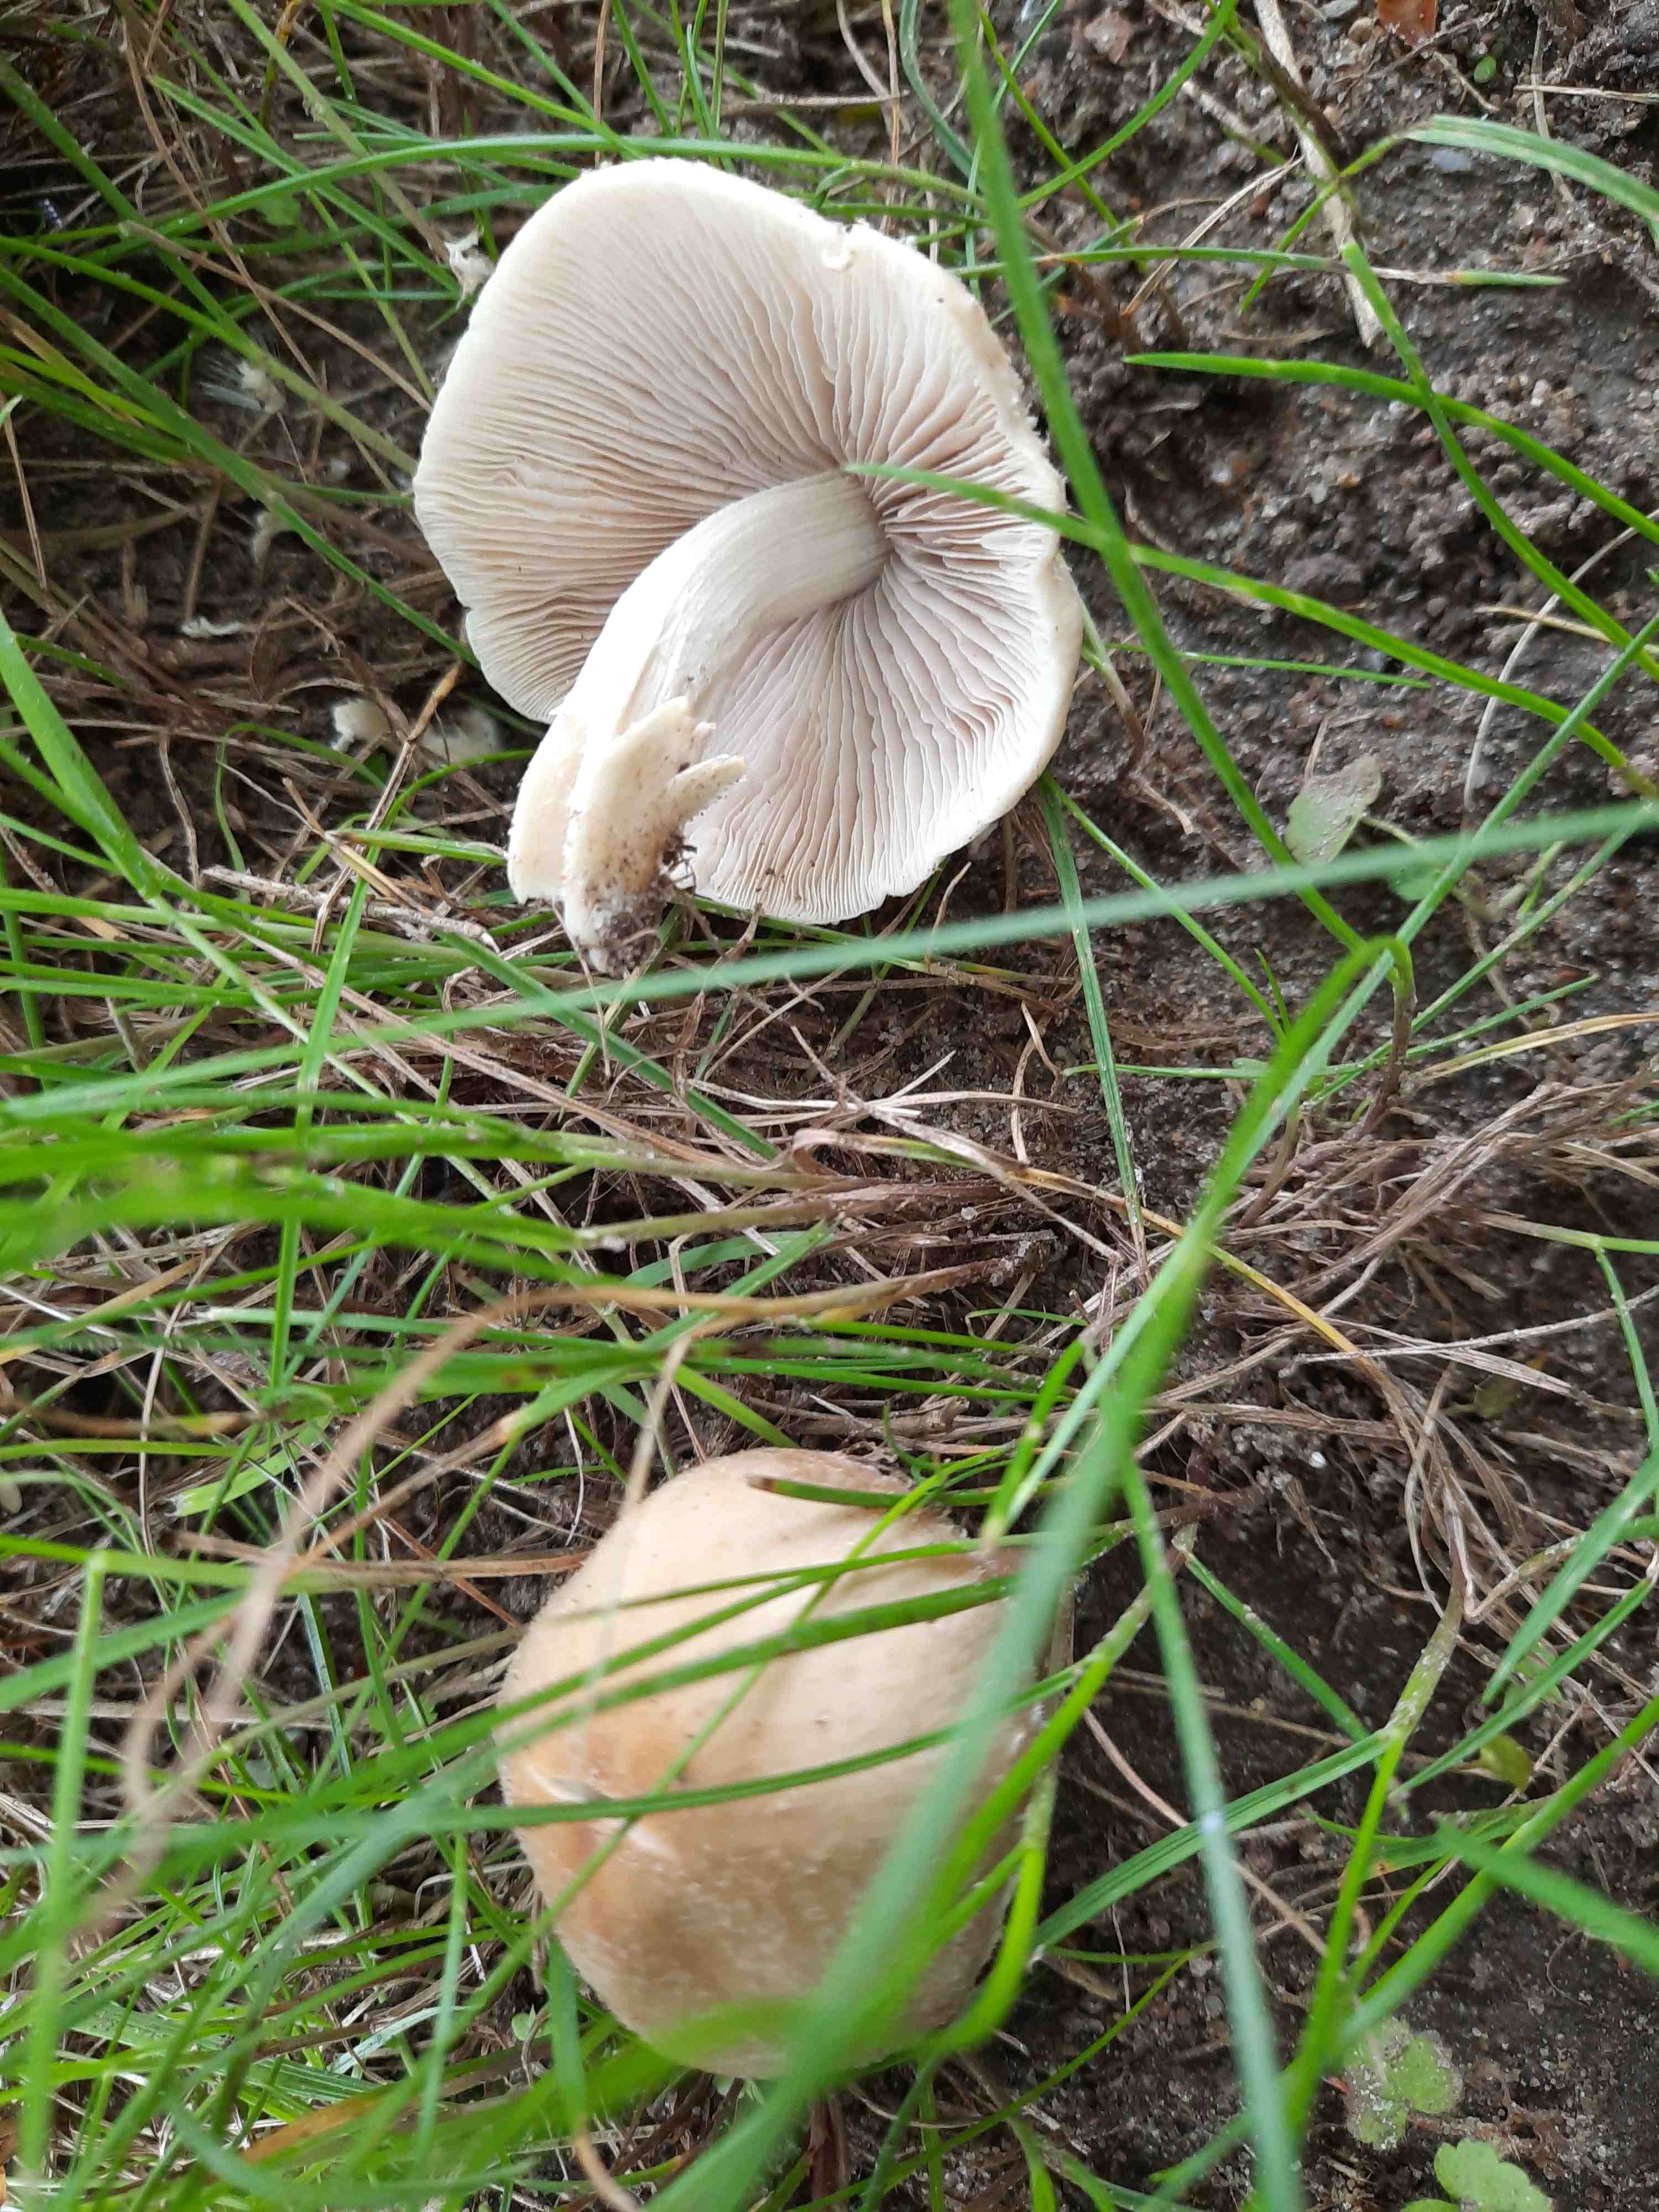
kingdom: Fungi
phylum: Basidiomycota
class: Agaricomycetes
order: Agaricales
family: Psathyrellaceae
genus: Candolleomyces
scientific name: Candolleomyces candolleanus
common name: Candolles mørkhat
